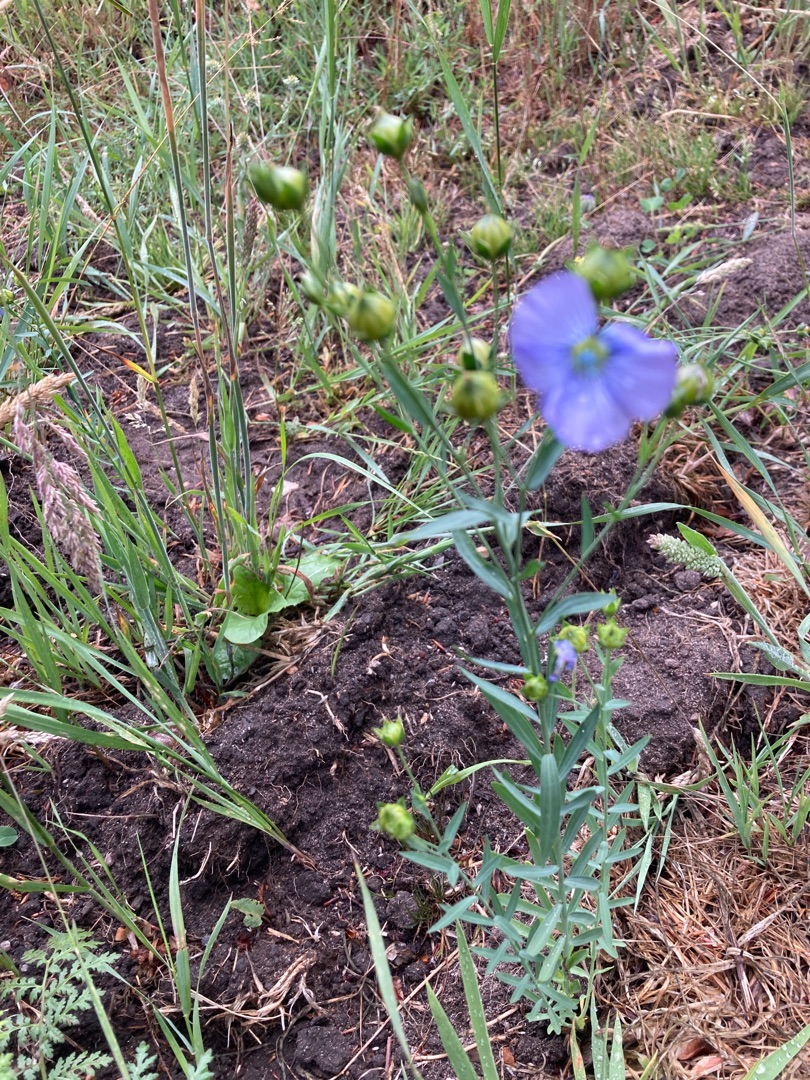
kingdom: Plantae
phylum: Tracheophyta
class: Magnoliopsida
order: Malpighiales
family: Linaceae
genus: Linum
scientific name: Linum usitatissimum
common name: Almindelig hør
